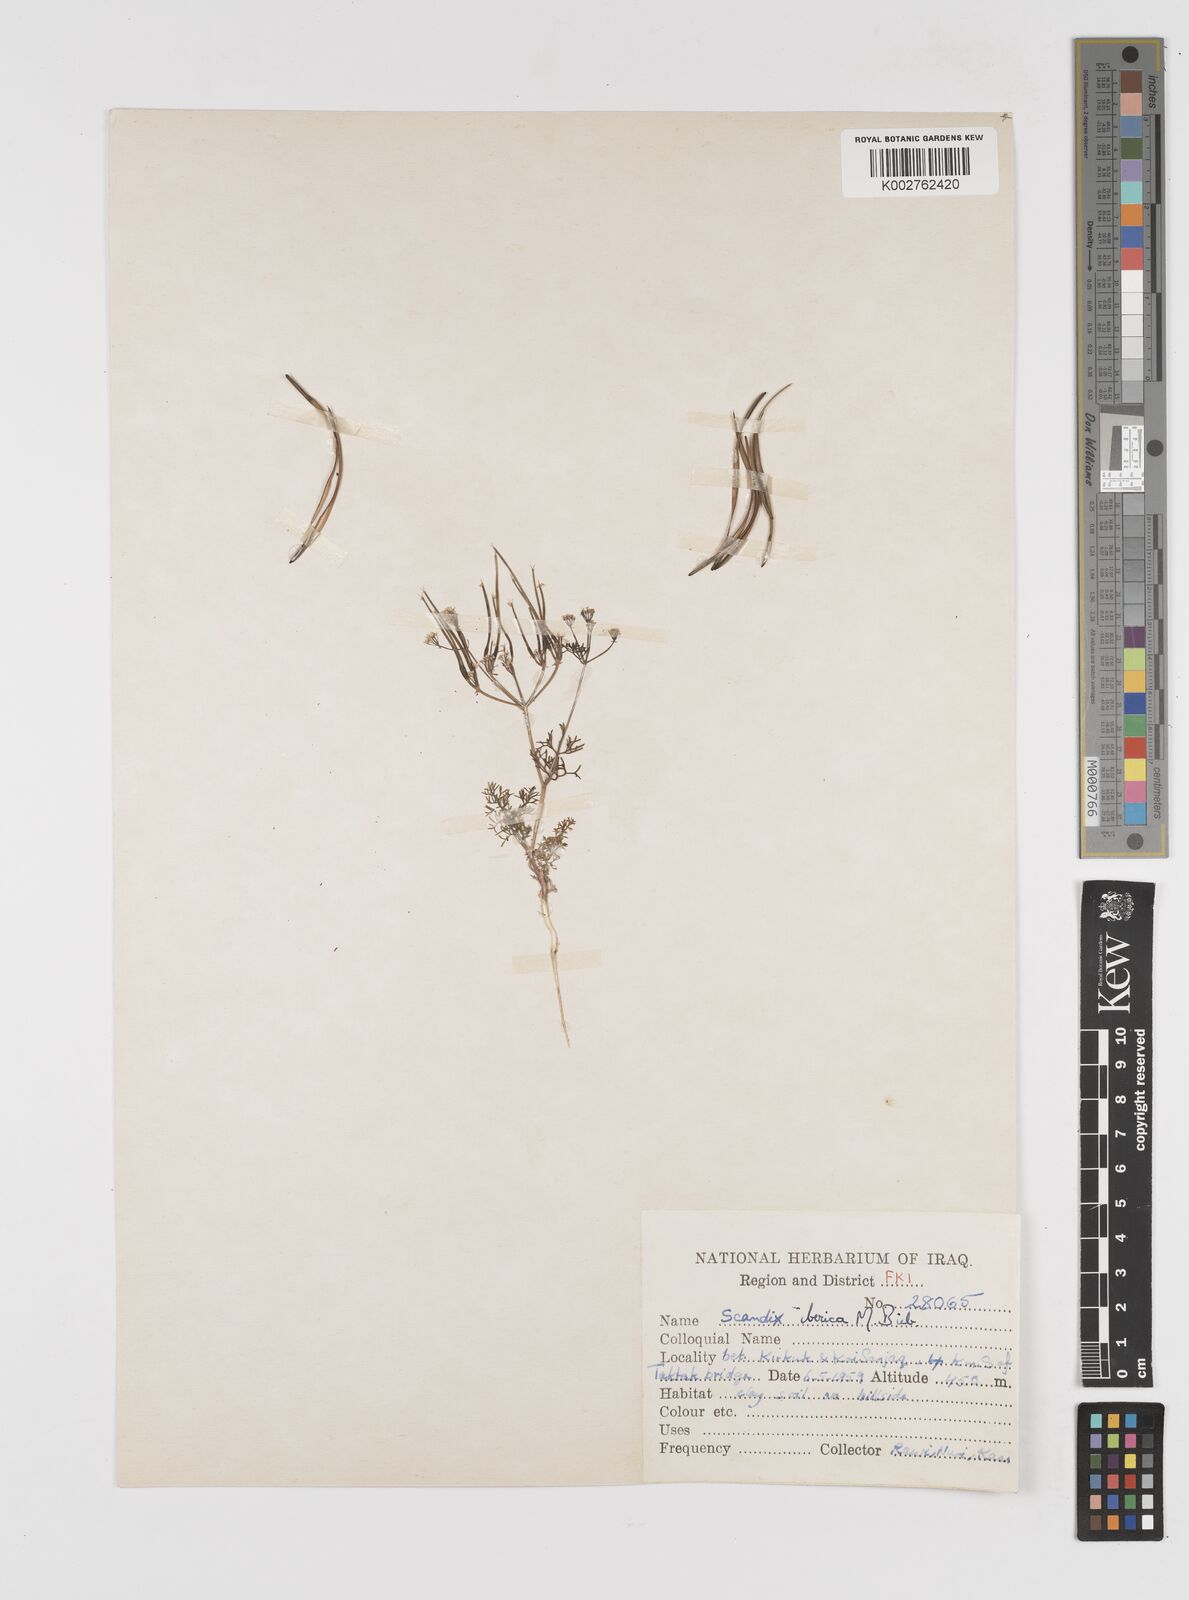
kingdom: Plantae
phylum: Tracheophyta
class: Magnoliopsida
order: Apiales
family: Apiaceae
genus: Scandix
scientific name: Scandix iberica
